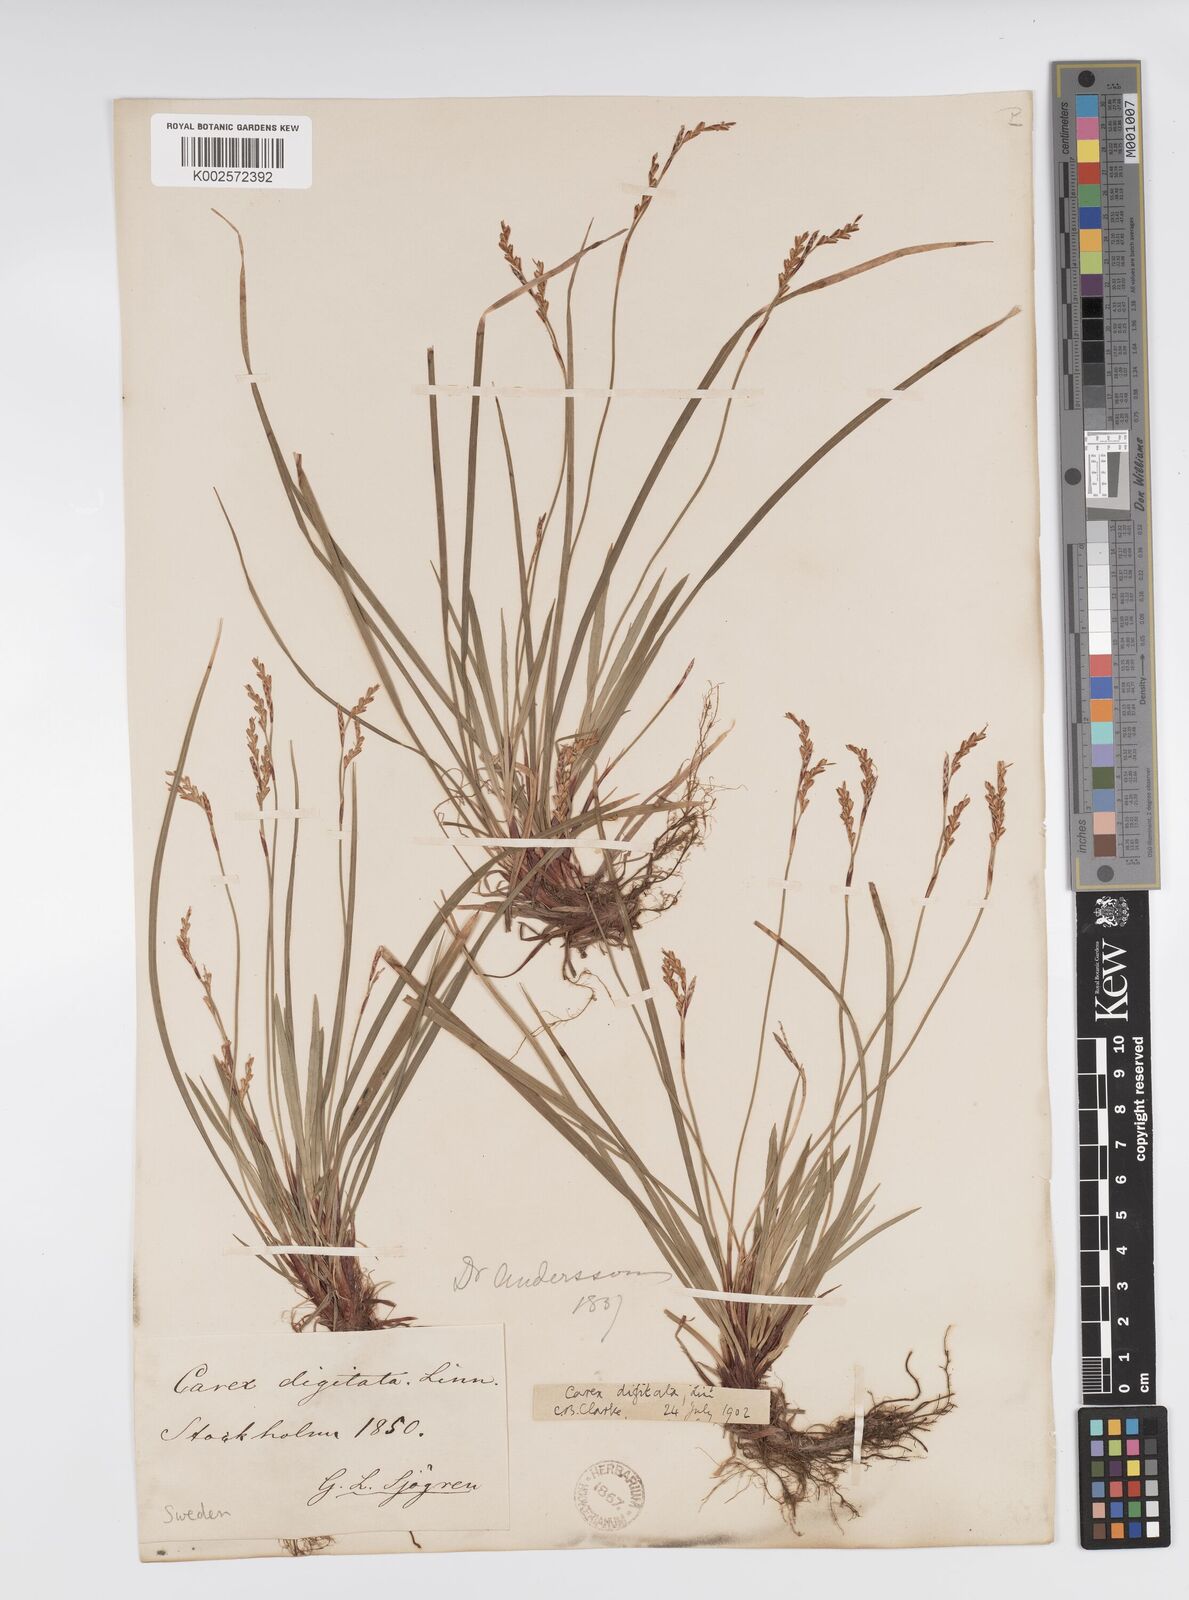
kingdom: Plantae
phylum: Tracheophyta
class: Liliopsida
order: Poales
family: Cyperaceae
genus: Carex
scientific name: Carex digitata
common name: Fingered sedge
